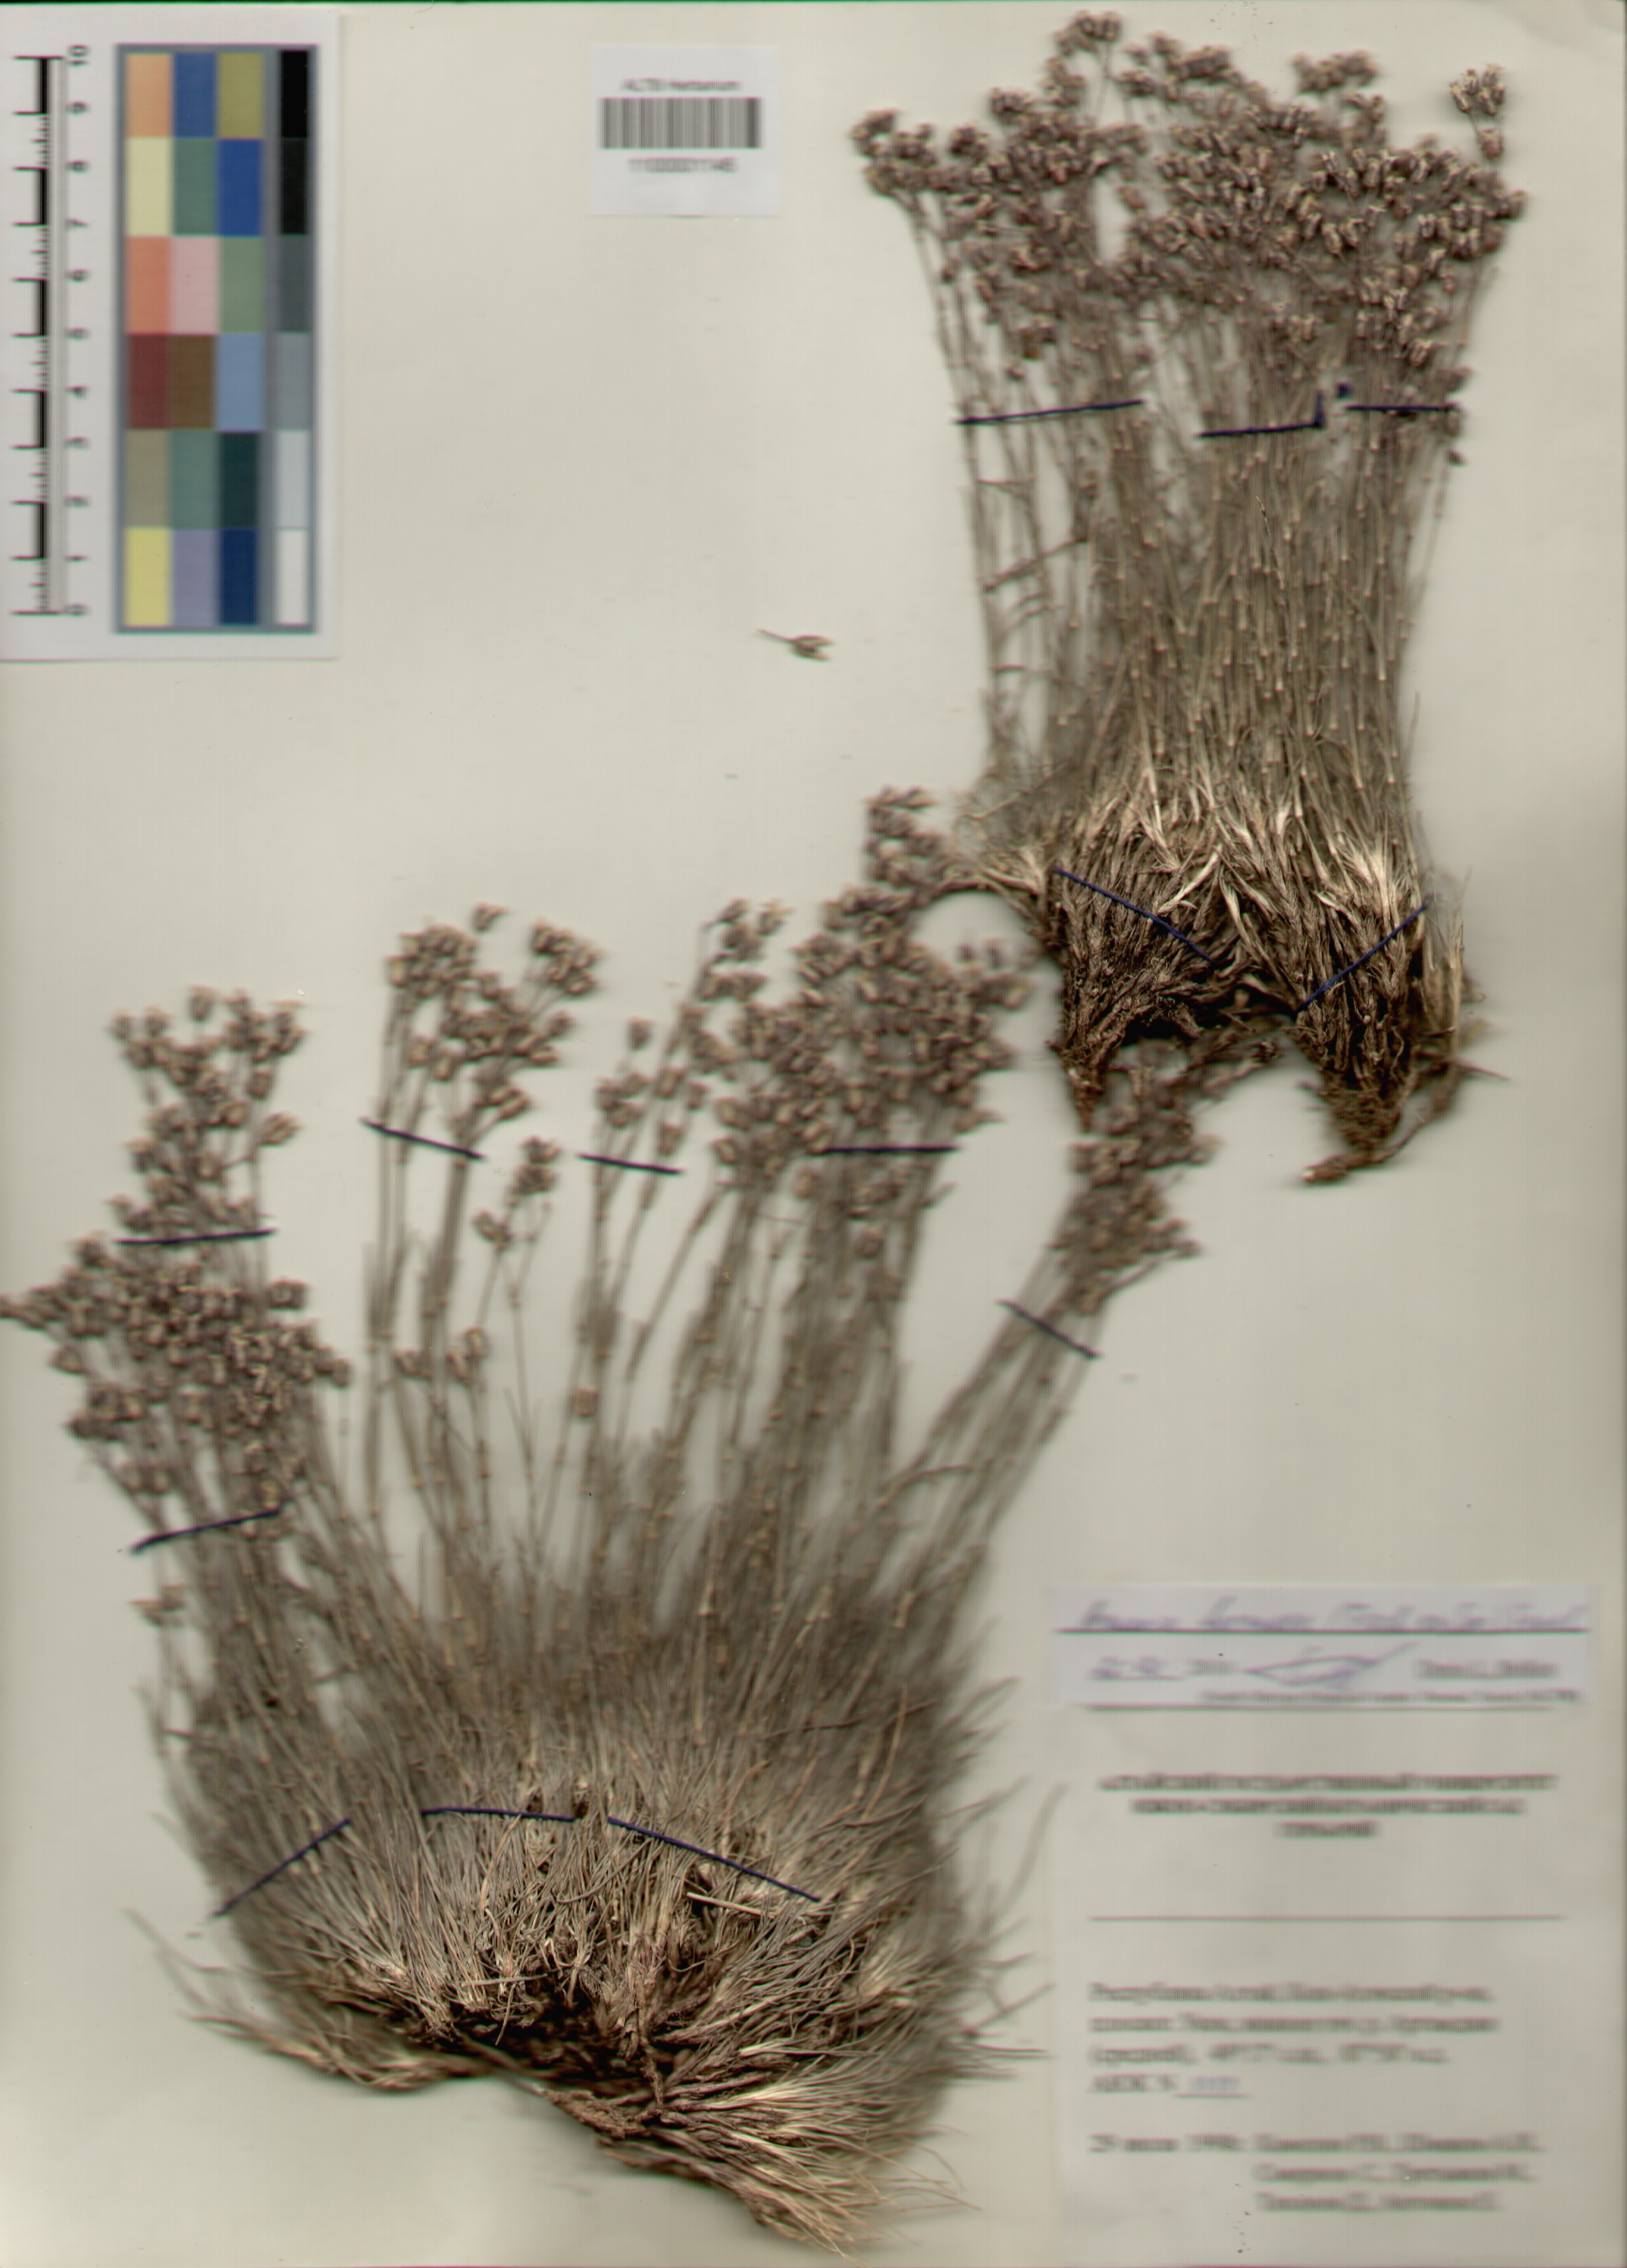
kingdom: Plantae
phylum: Tracheophyta
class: Magnoliopsida
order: Caryophyllales
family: Caryophyllaceae
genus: Eremogone
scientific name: Eremogone formosa
